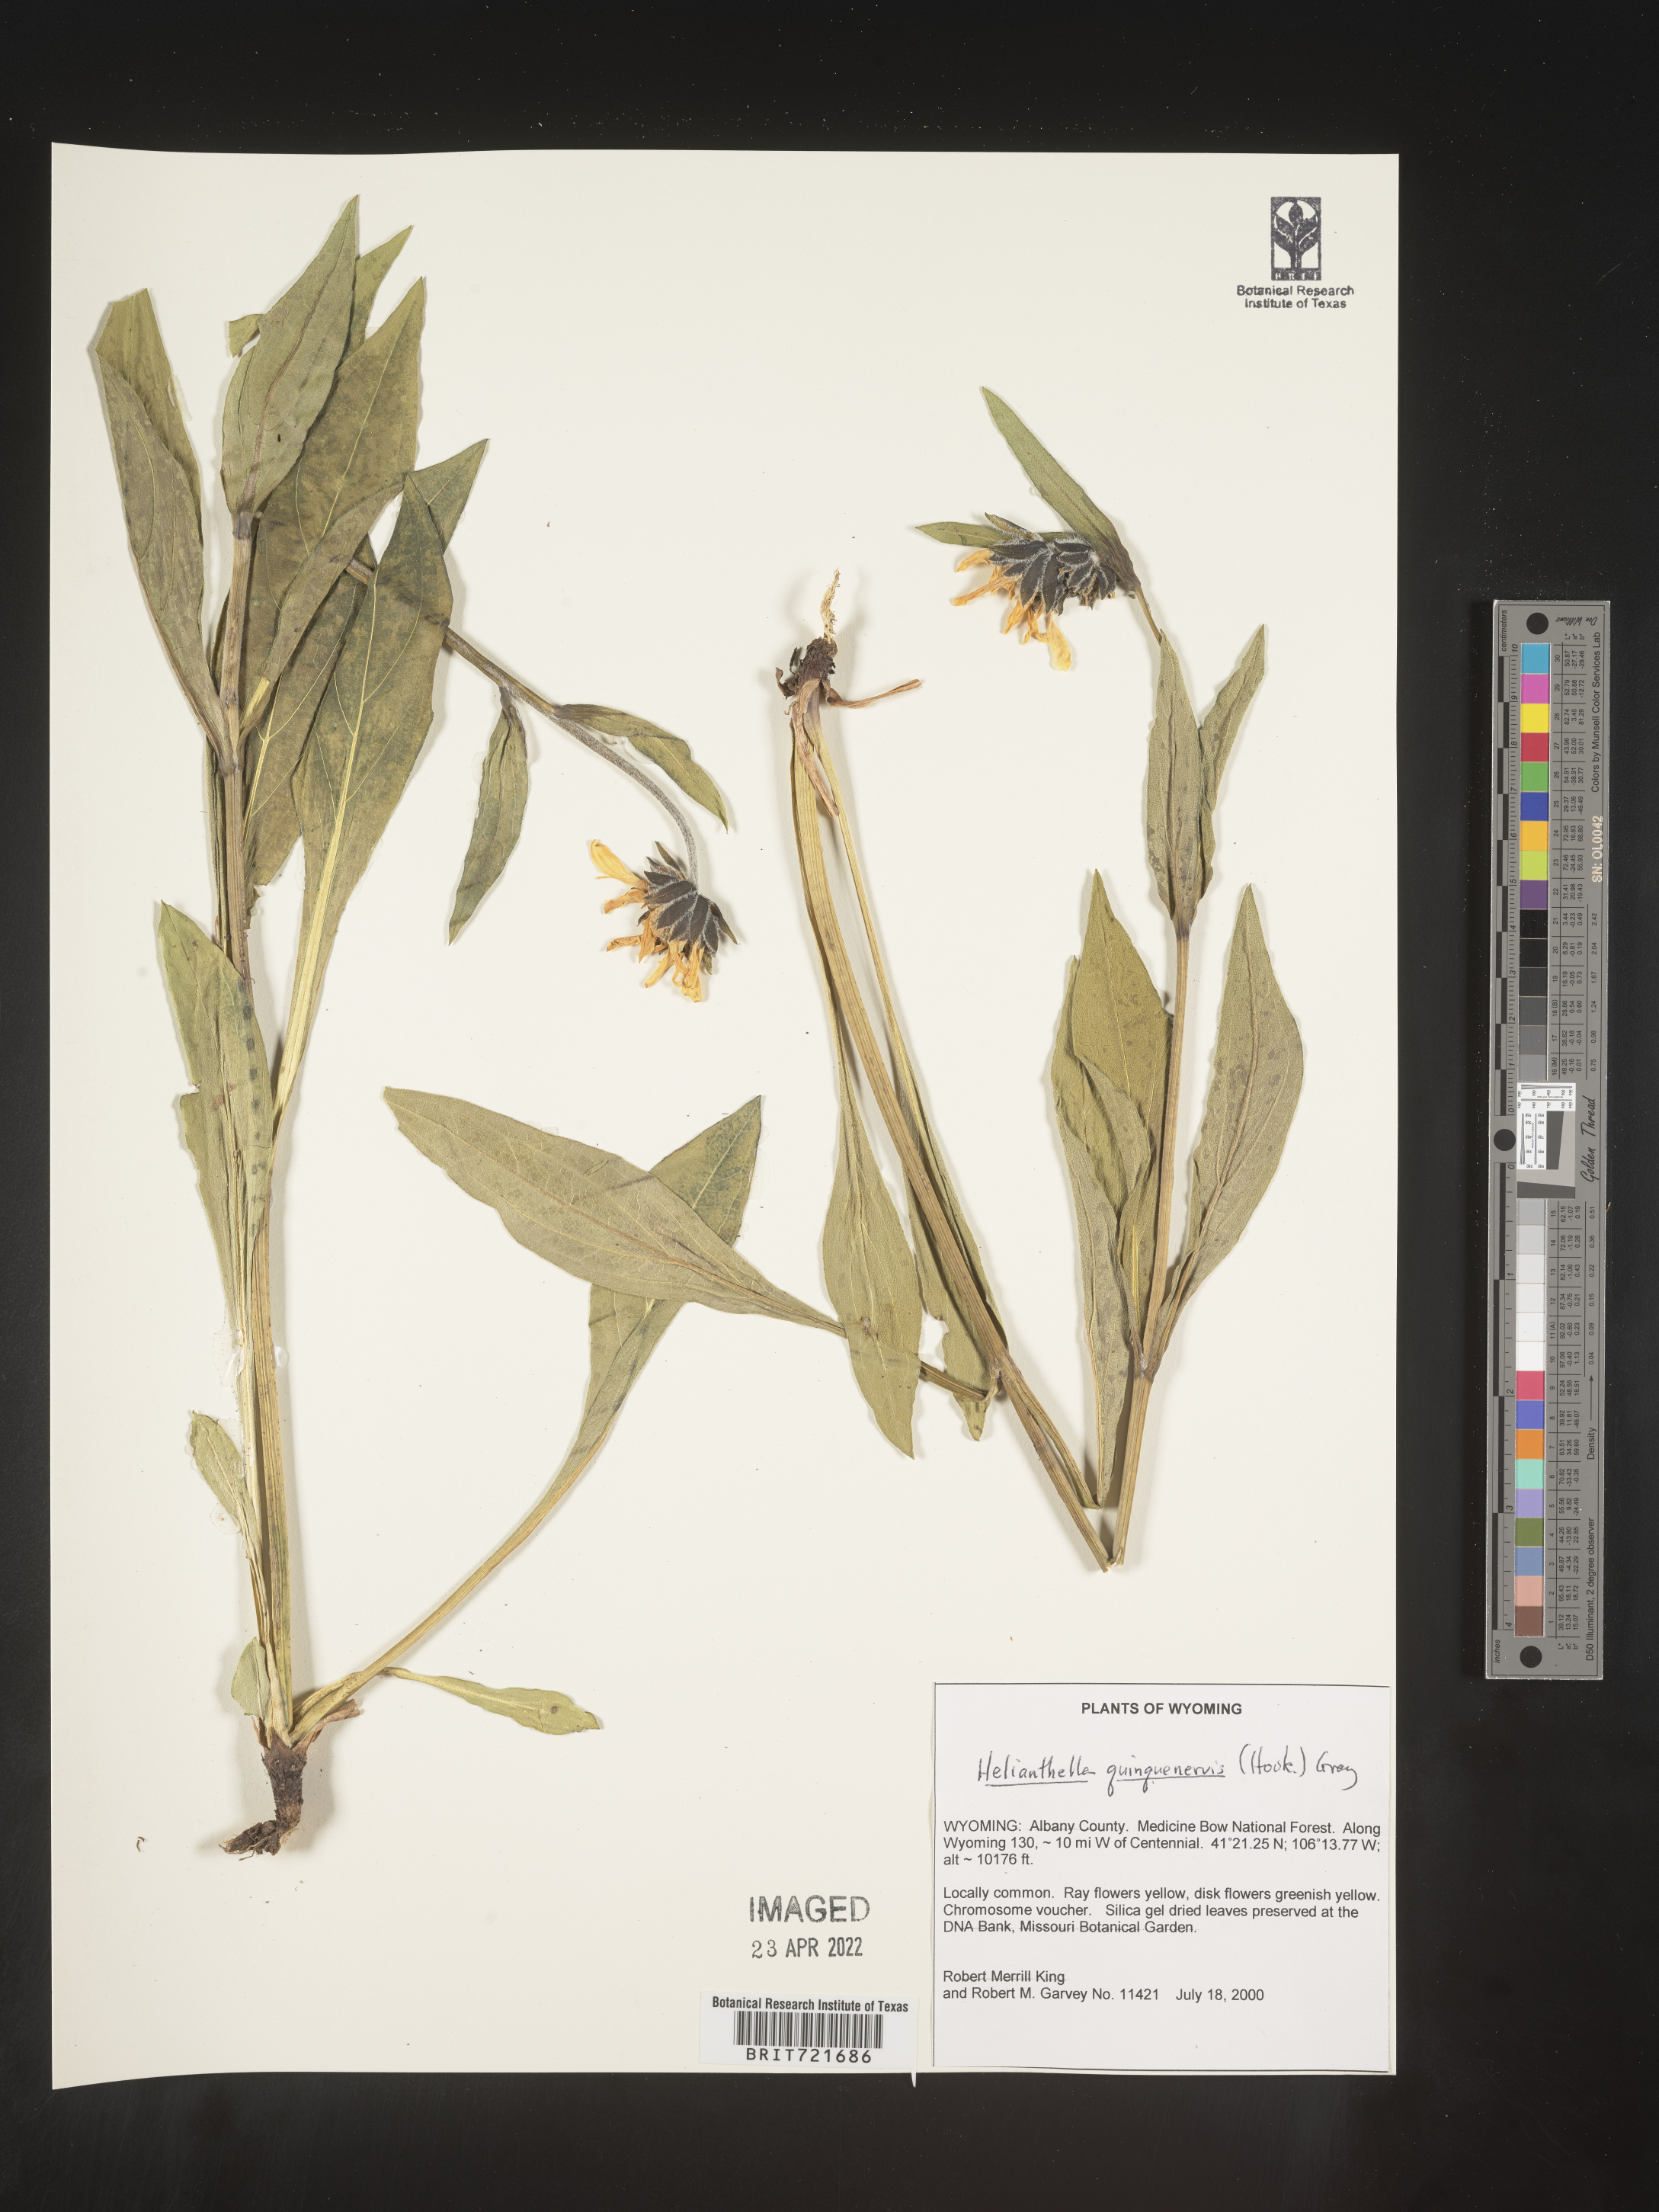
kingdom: Plantae
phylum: Tracheophyta
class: Magnoliopsida
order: Asterales
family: Asteraceae
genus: Helianthella
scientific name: Helianthella quinquenervis
